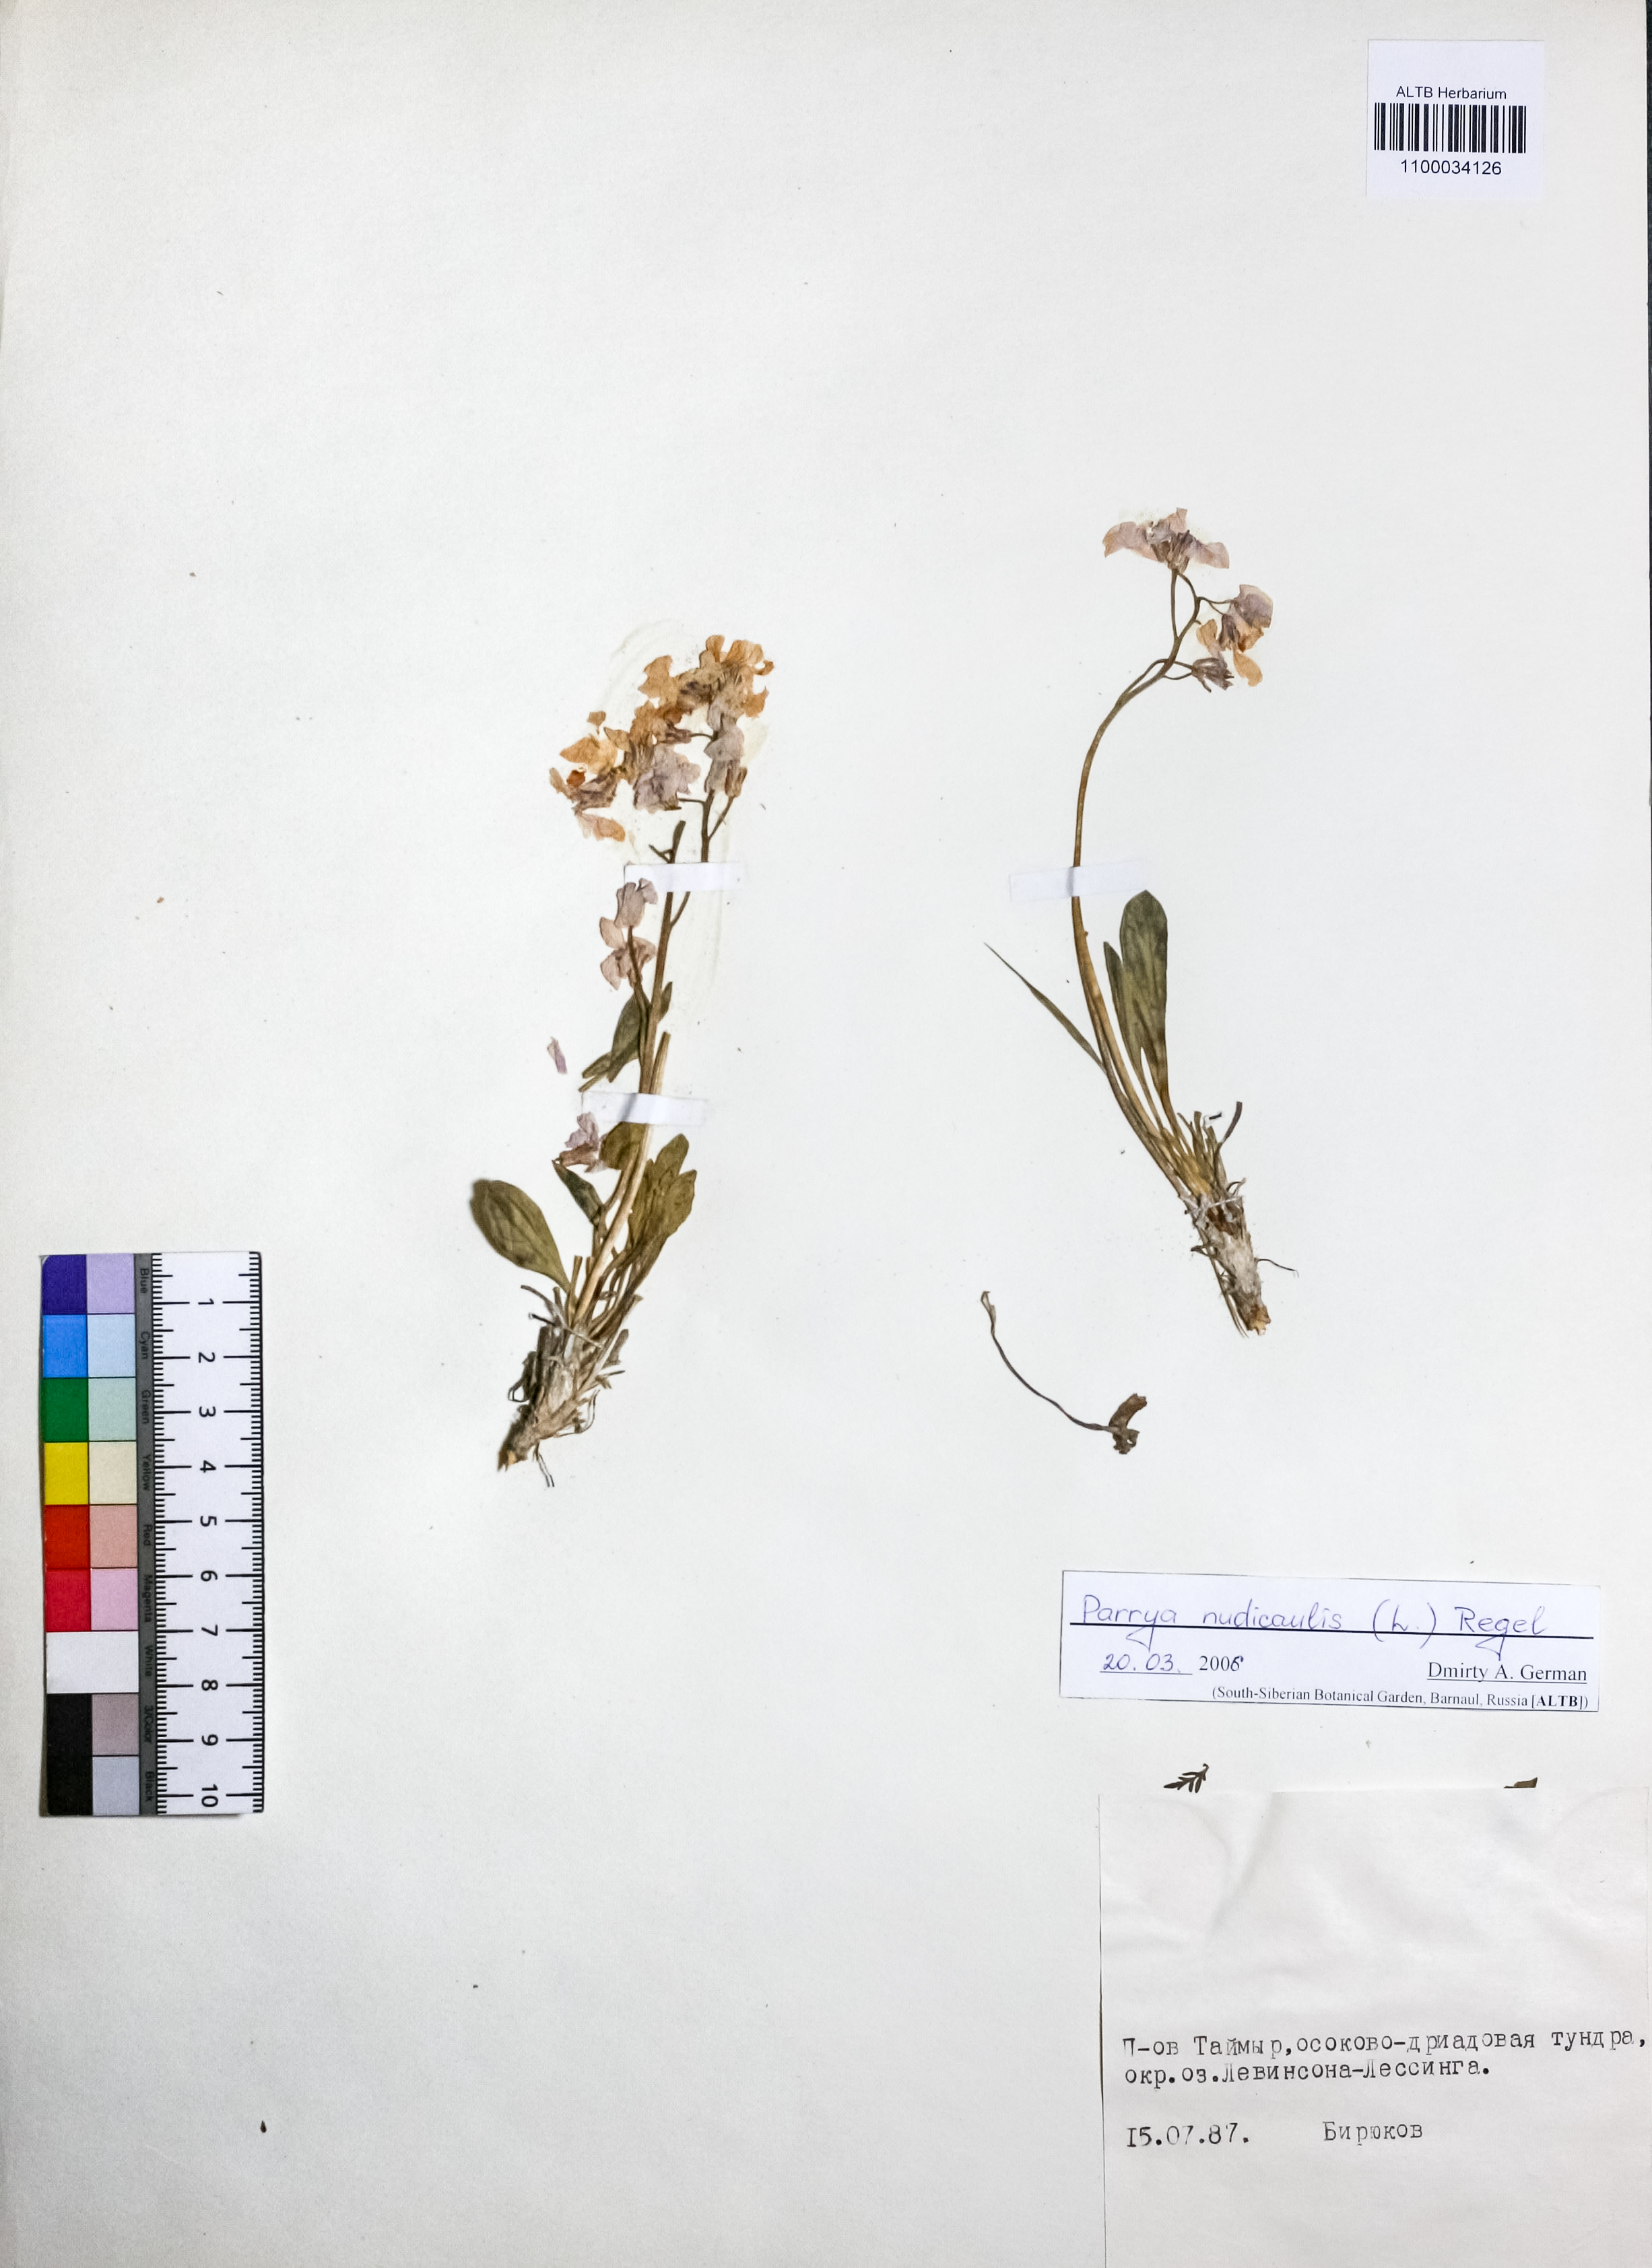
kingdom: Plantae
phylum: Tracheophyta
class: Magnoliopsida
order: Brassicales
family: Brassicaceae
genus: Parrya
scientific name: Parrya nudicaulis
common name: Naked-stemmed false wallflower
